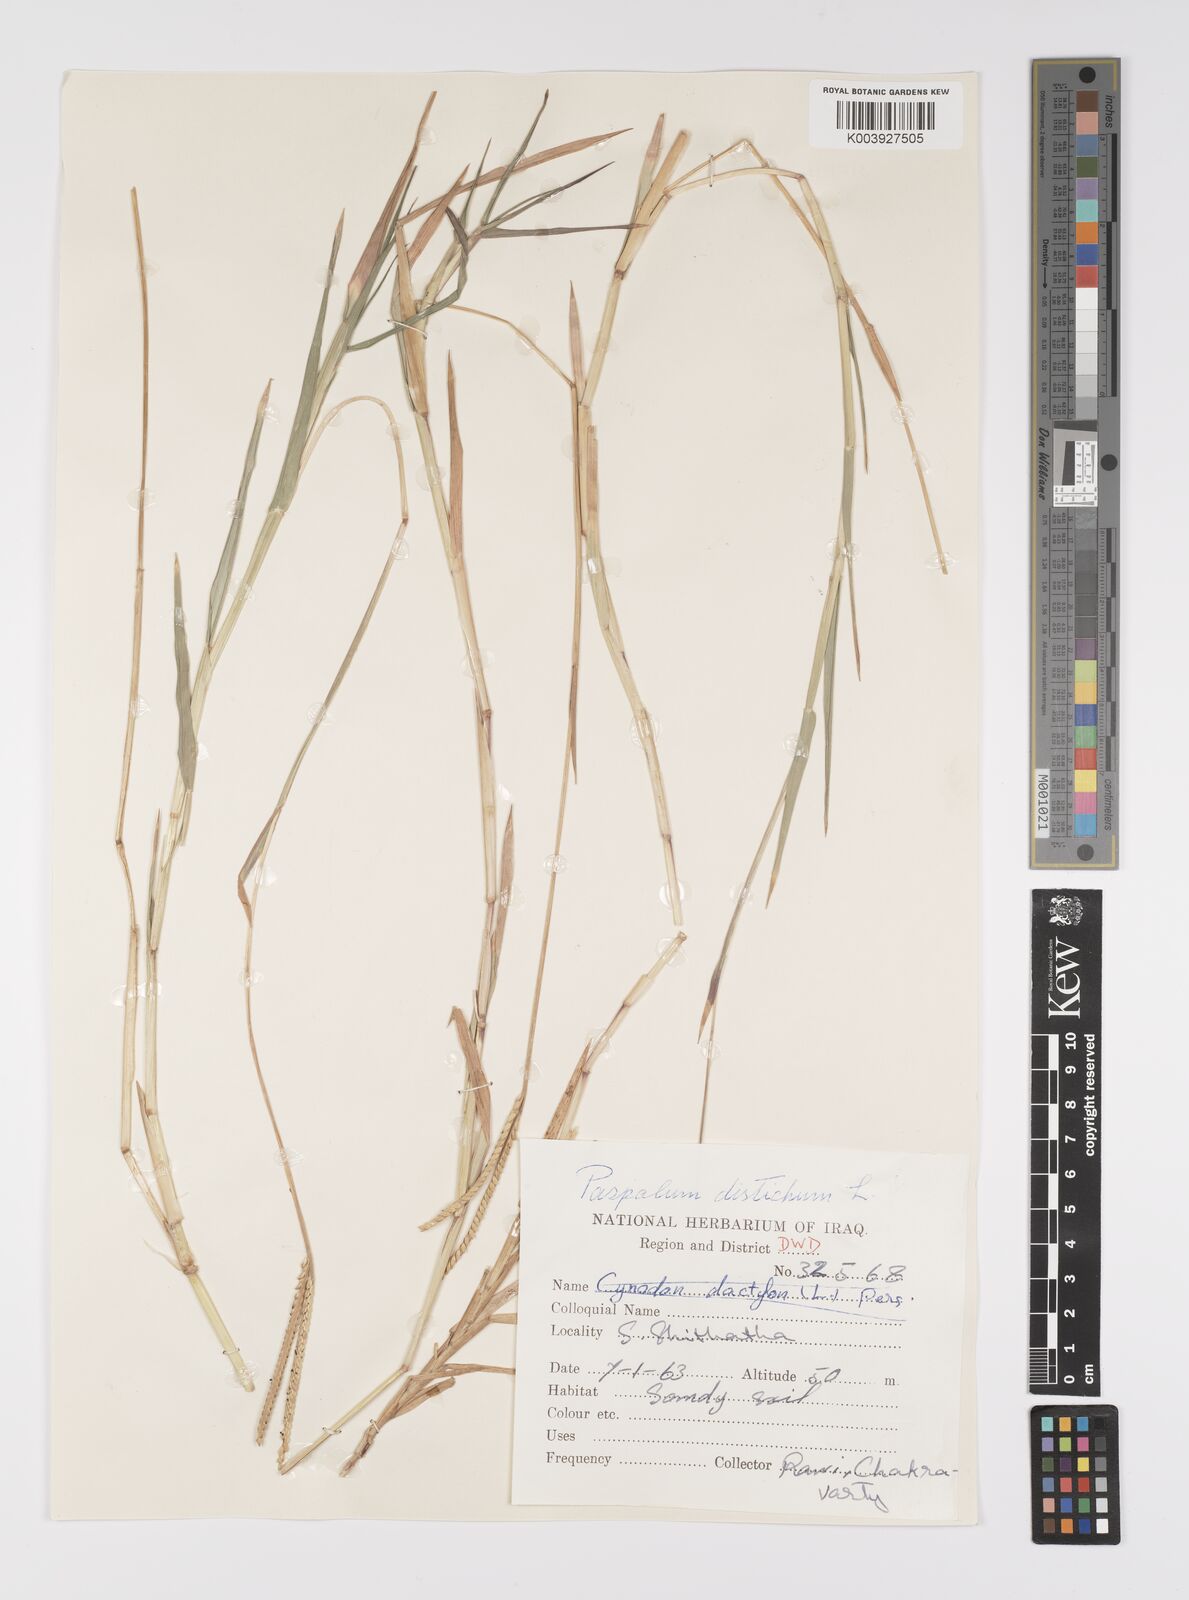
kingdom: Plantae
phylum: Tracheophyta
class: Liliopsida
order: Poales
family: Poaceae
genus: Paspalum
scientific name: Paspalum distichum
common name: Knotgrass
